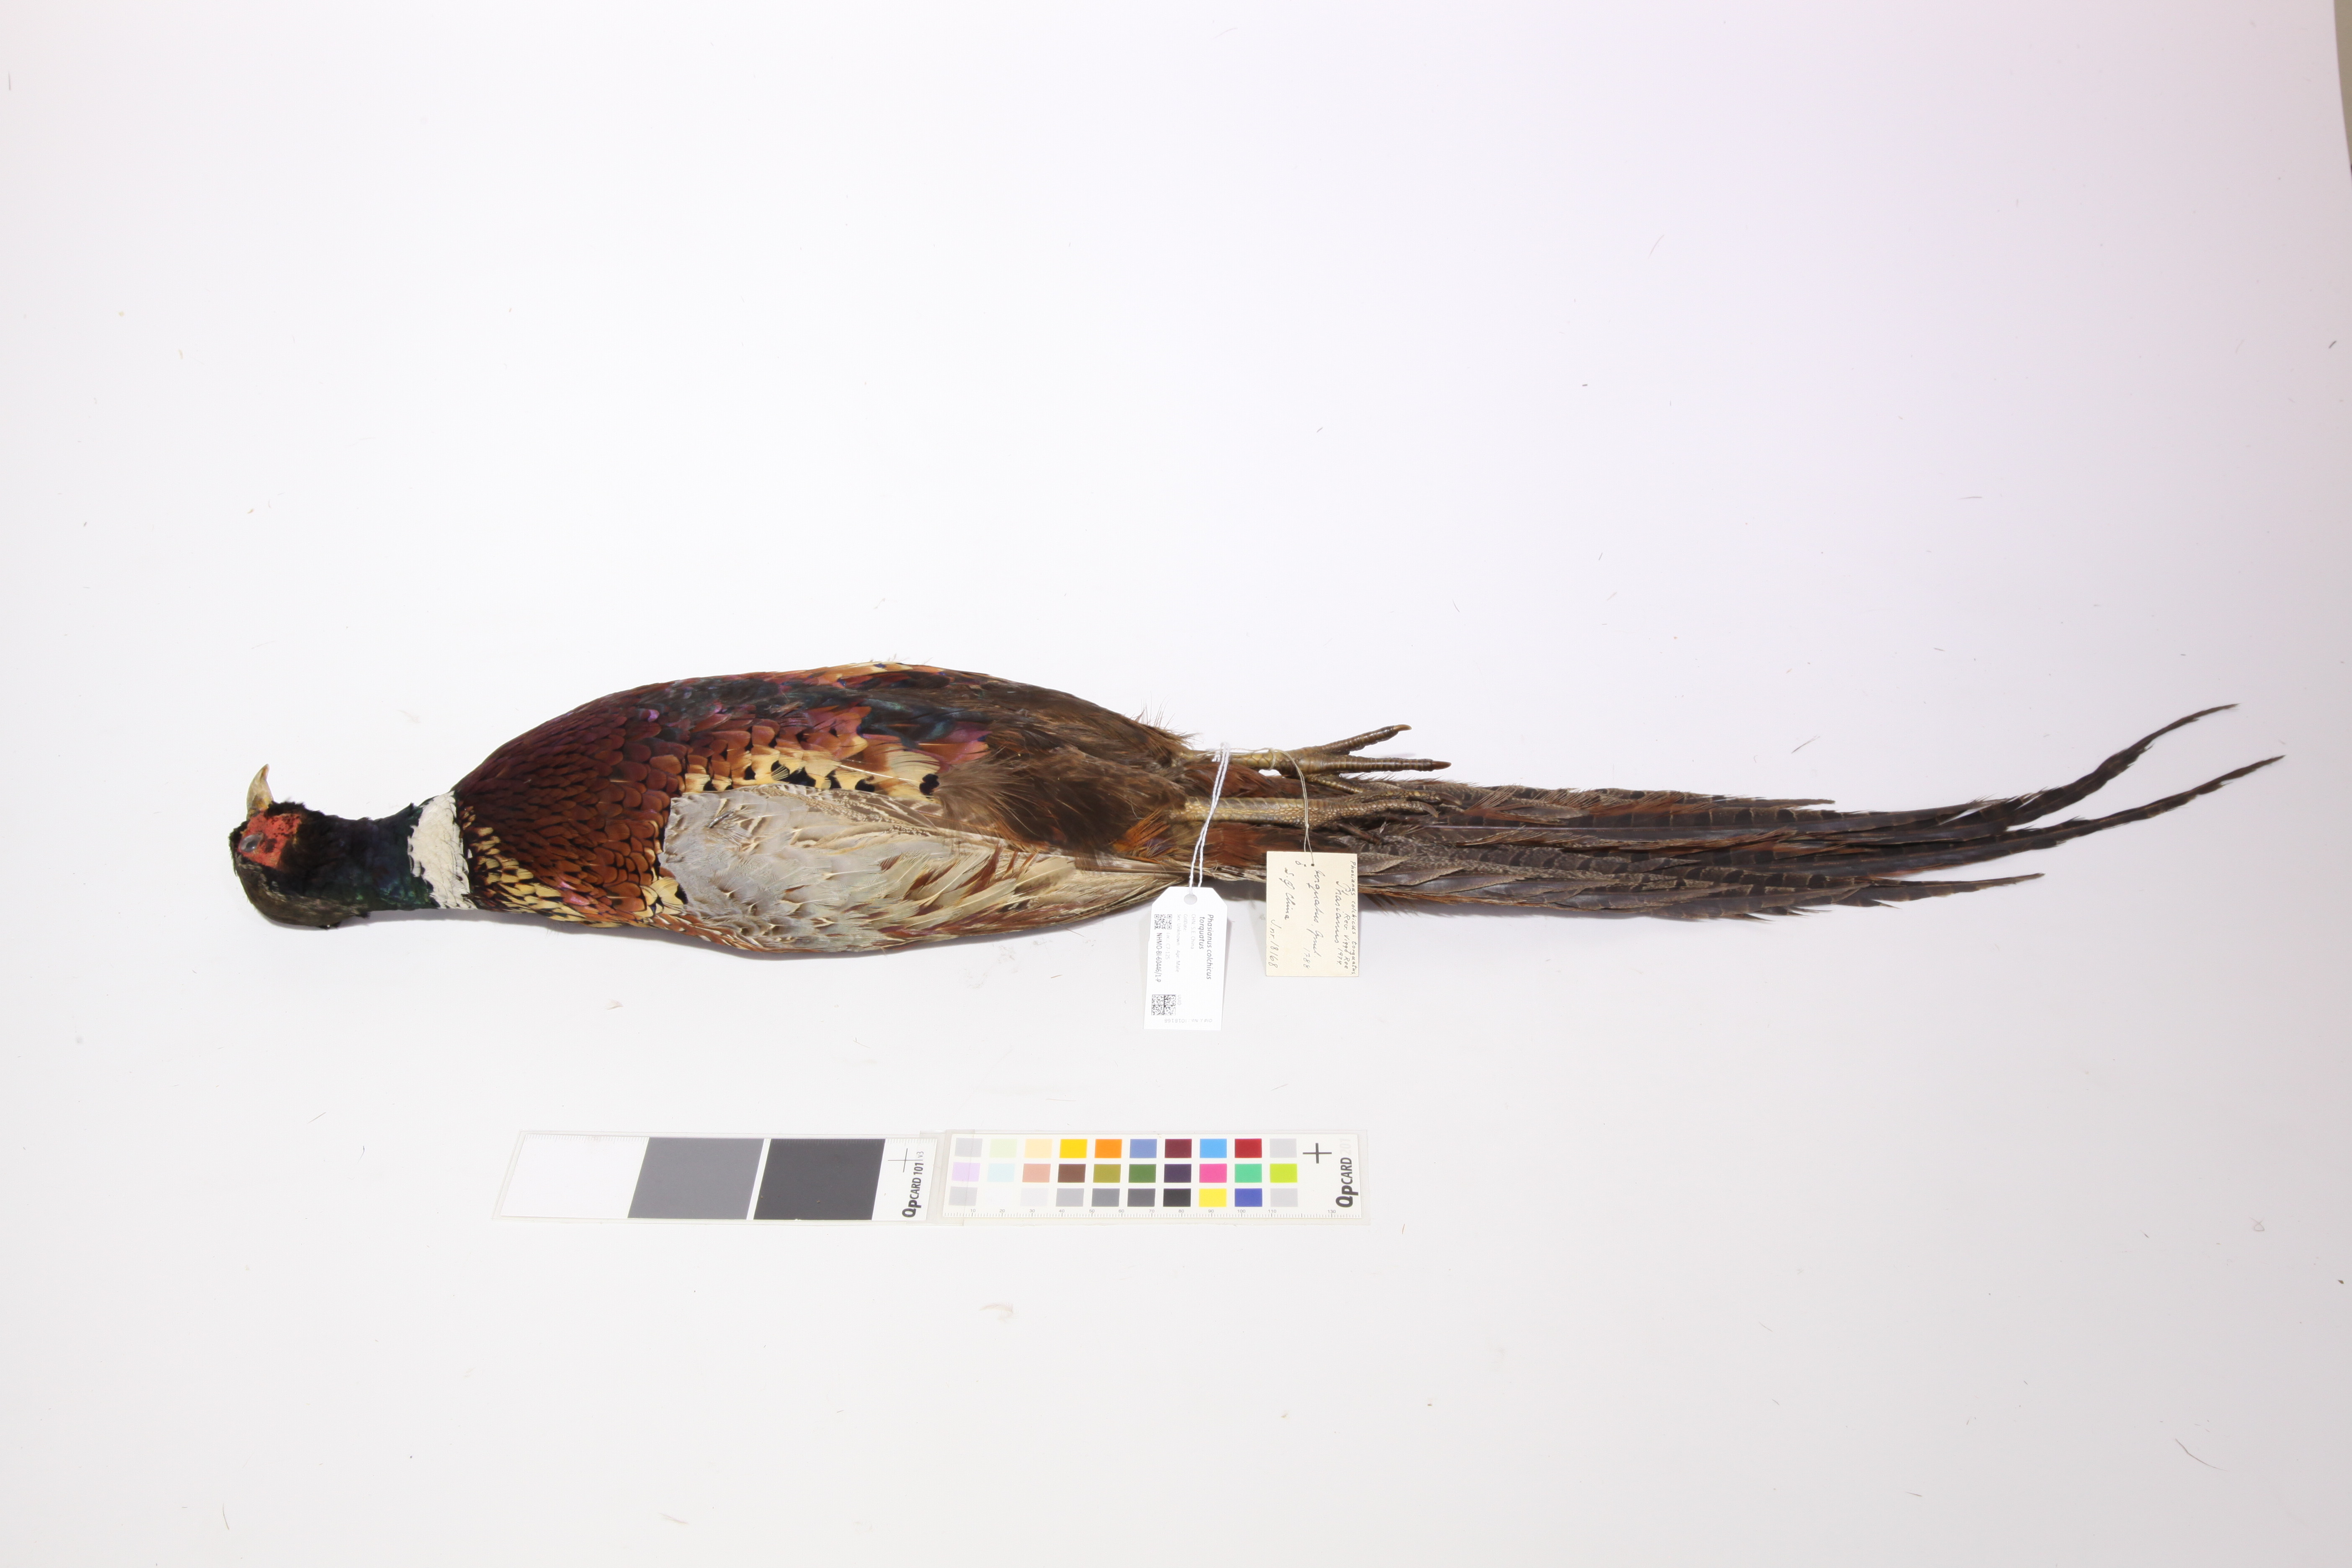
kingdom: Animalia
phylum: Chordata
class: Aves
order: Galliformes
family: Phasianidae
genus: Phasianus
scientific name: Phasianus colchicus
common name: Common pheasant
